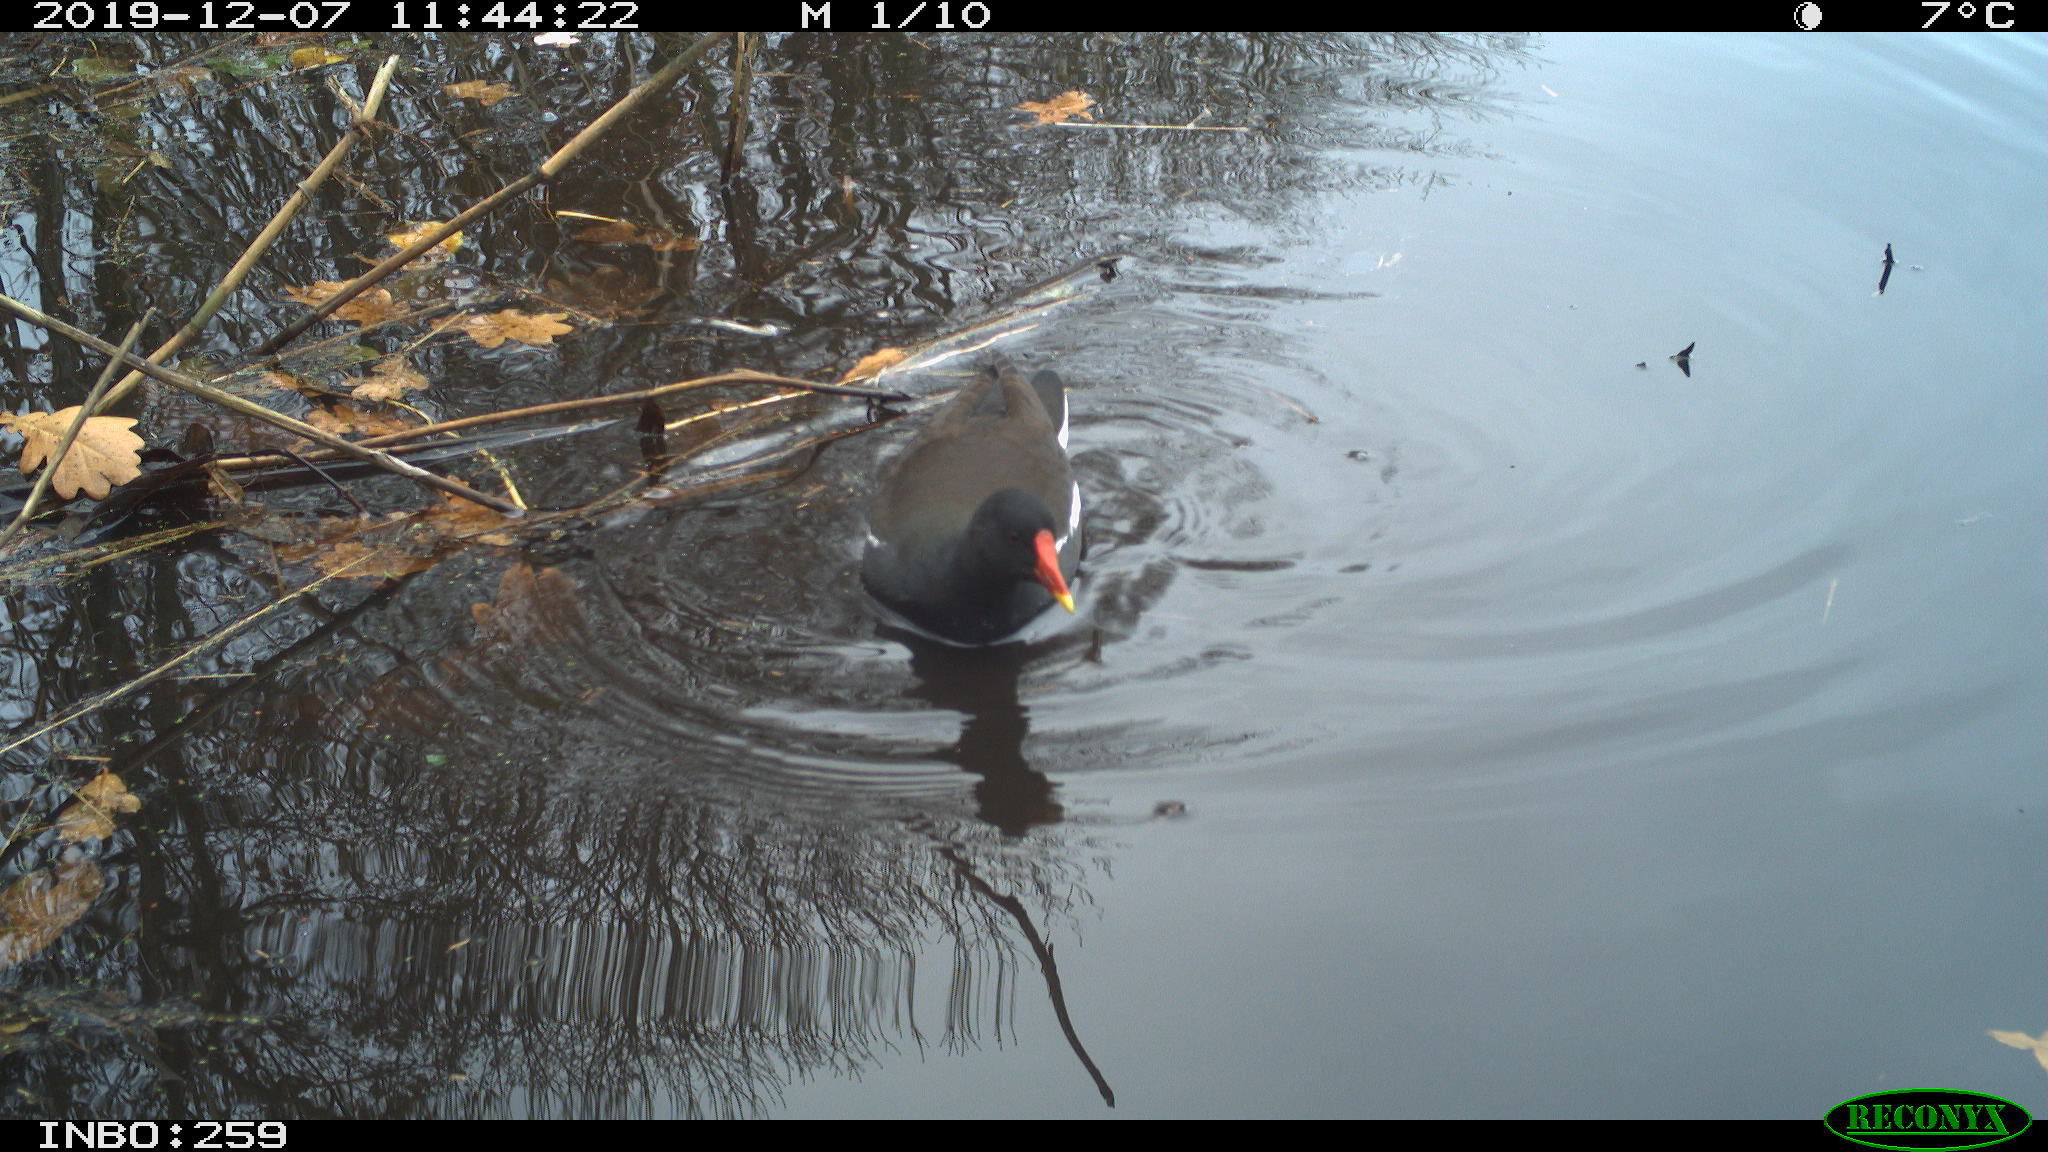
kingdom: Animalia
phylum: Chordata
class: Aves
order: Gruiformes
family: Rallidae
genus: Gallinula
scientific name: Gallinula chloropus
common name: Common moorhen
